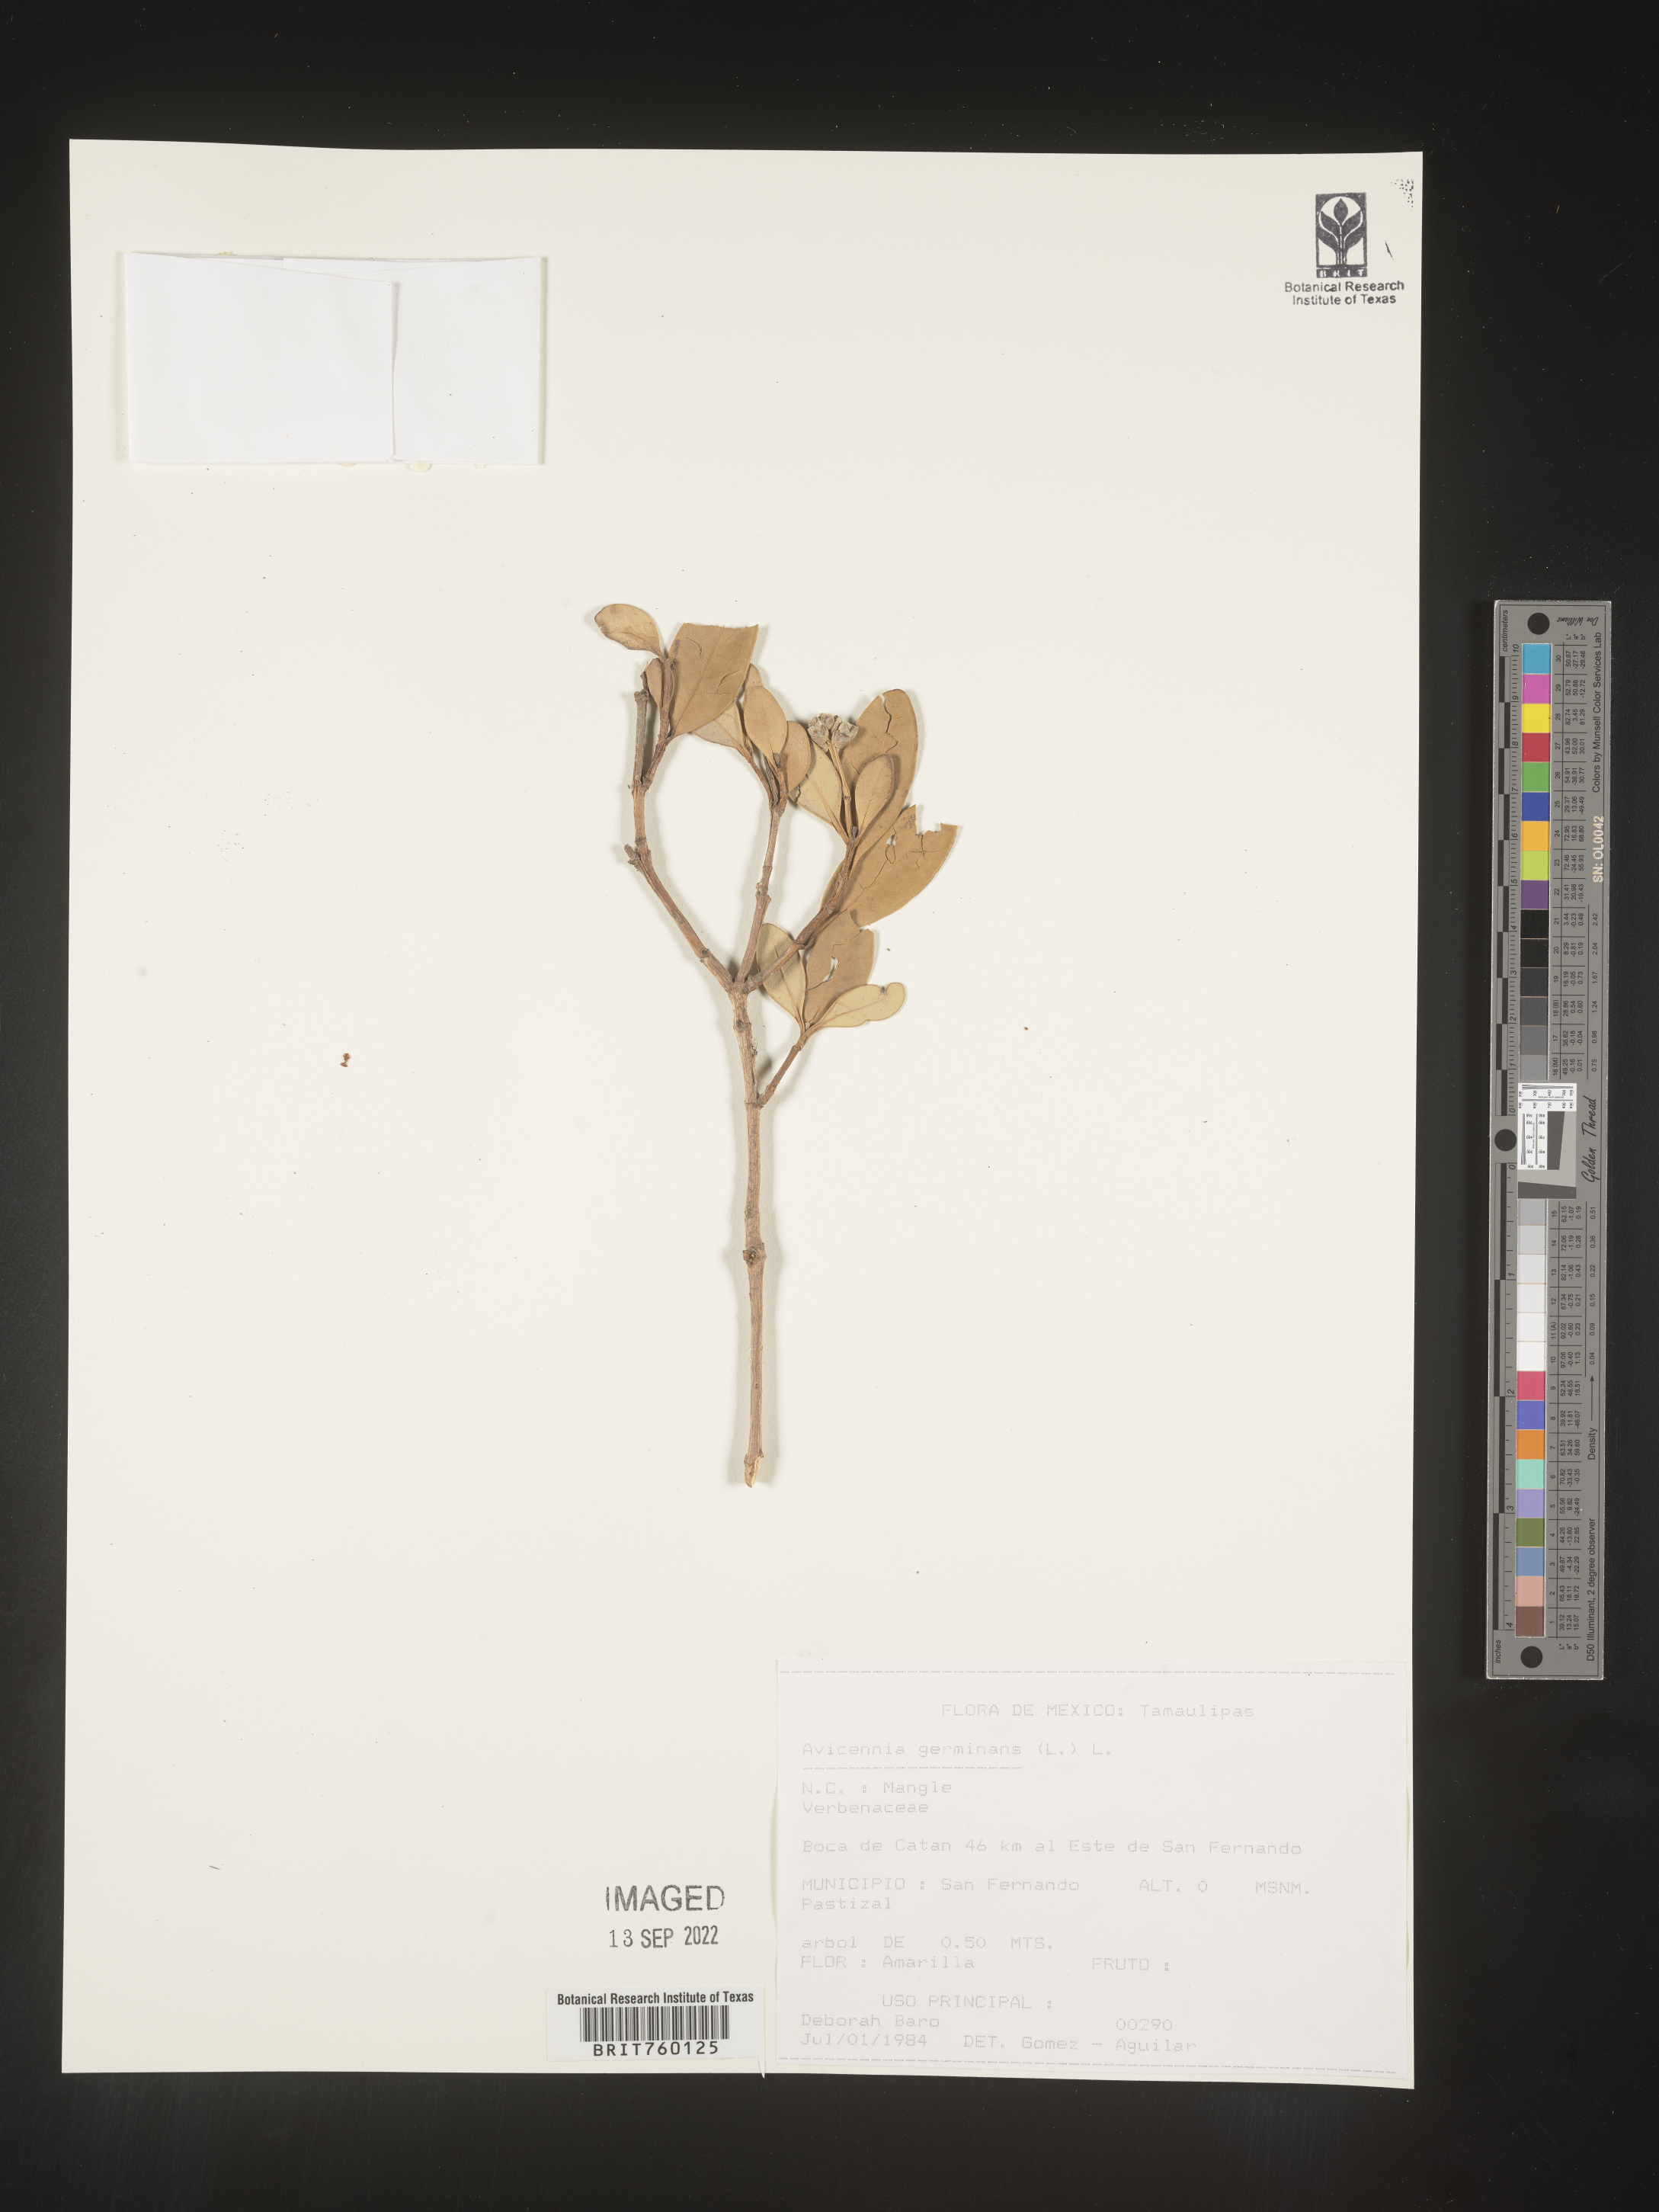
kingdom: Plantae
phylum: Tracheophyta
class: Magnoliopsida
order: Lamiales
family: Acanthaceae
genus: Avicennia
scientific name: Avicennia
